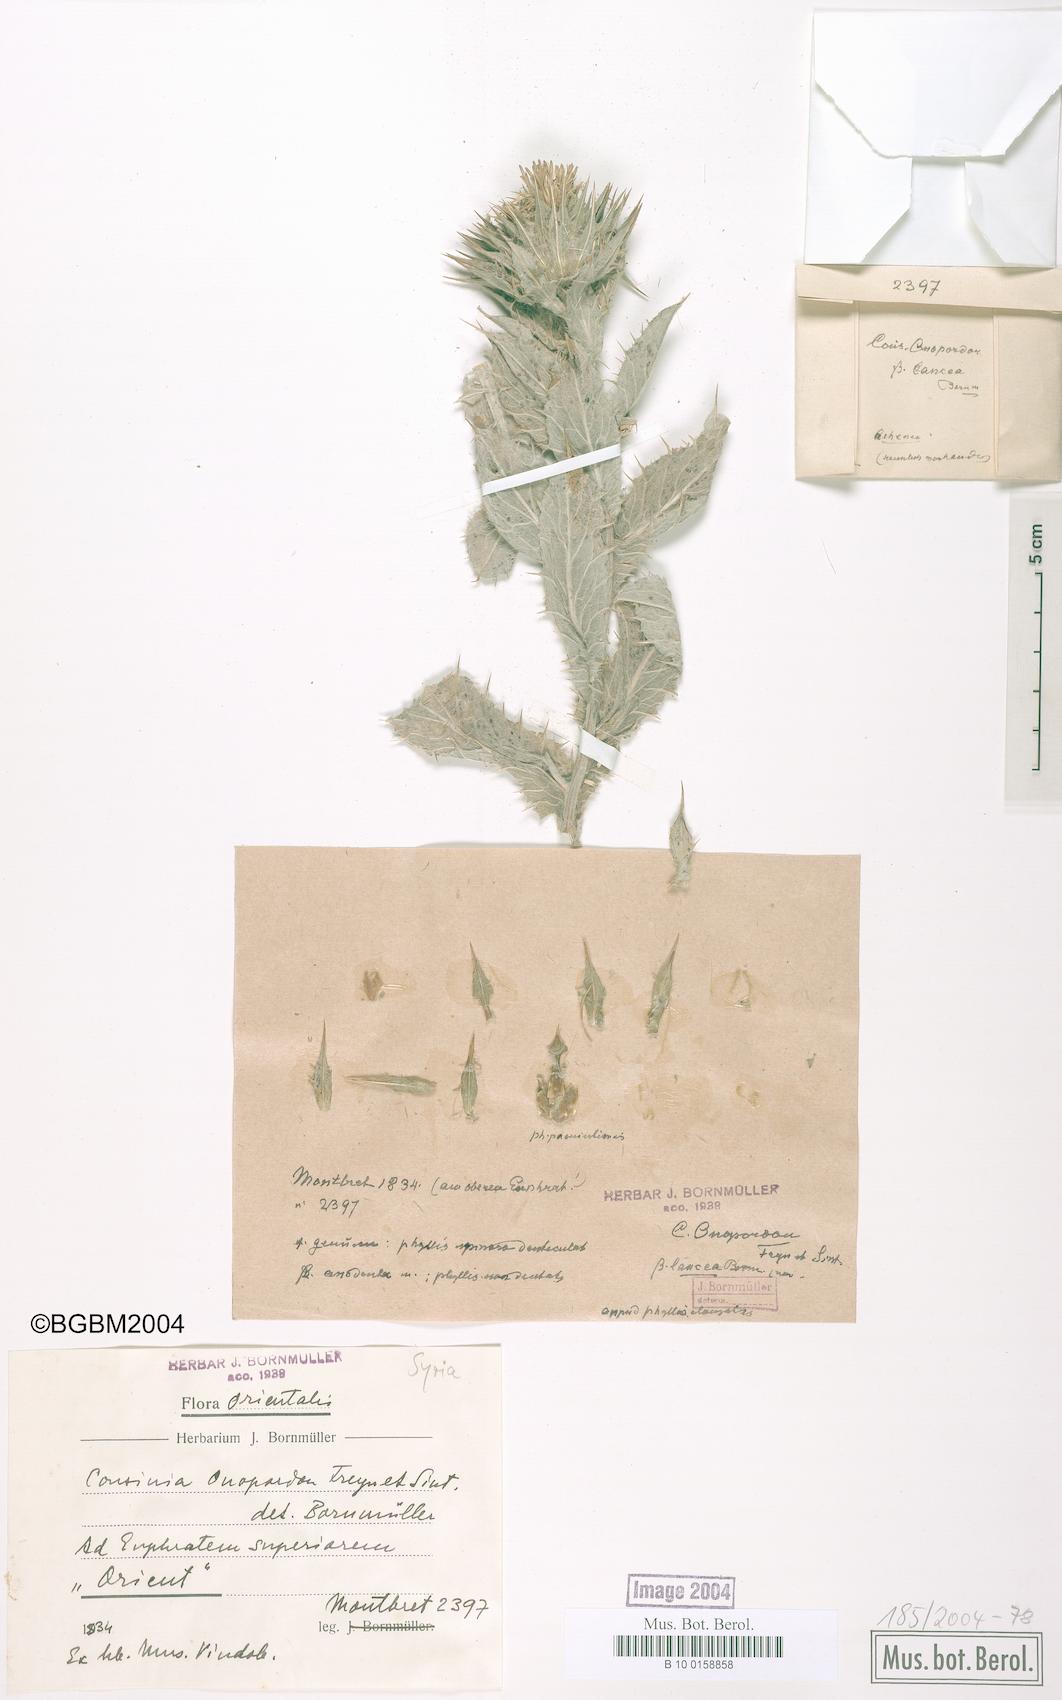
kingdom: Plantae
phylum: Tracheophyta
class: Magnoliopsida
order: Asterales
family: Asteraceae
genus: Cousinia
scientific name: Cousinia canescens
